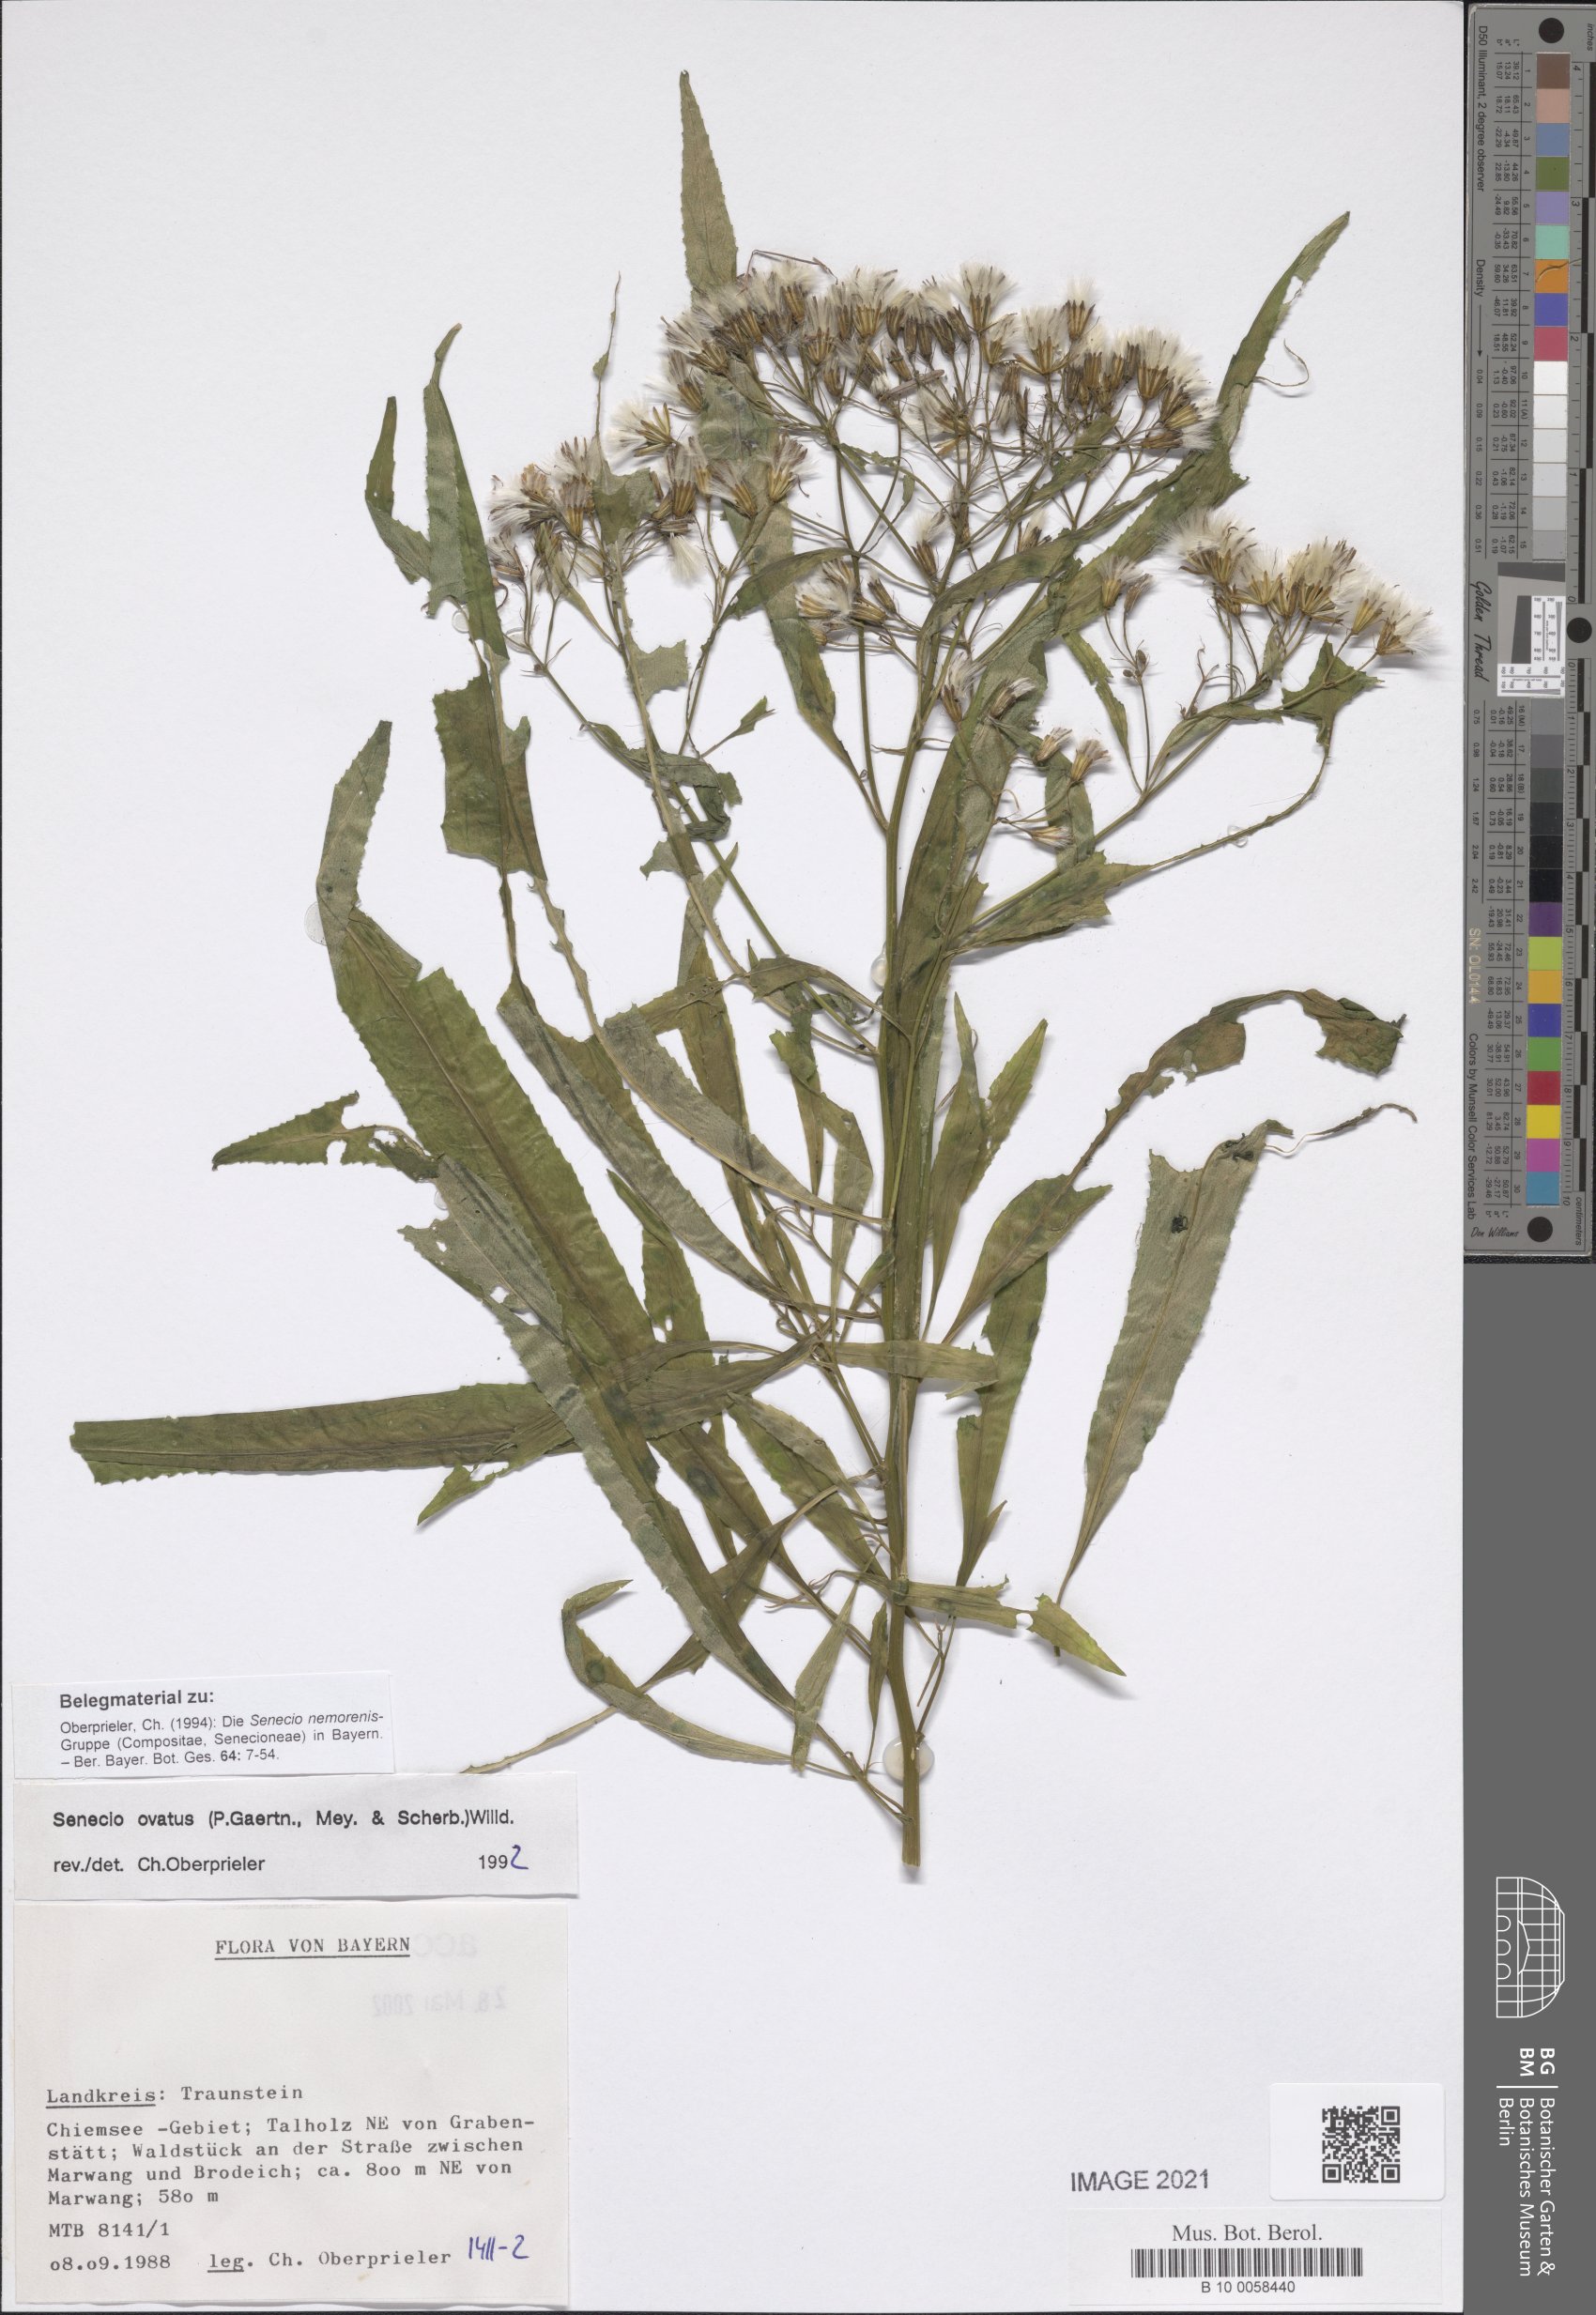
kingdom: Plantae
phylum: Tracheophyta
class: Magnoliopsida
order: Asterales
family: Asteraceae
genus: Senecio
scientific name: Senecio ovatus
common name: Wood ragwort
